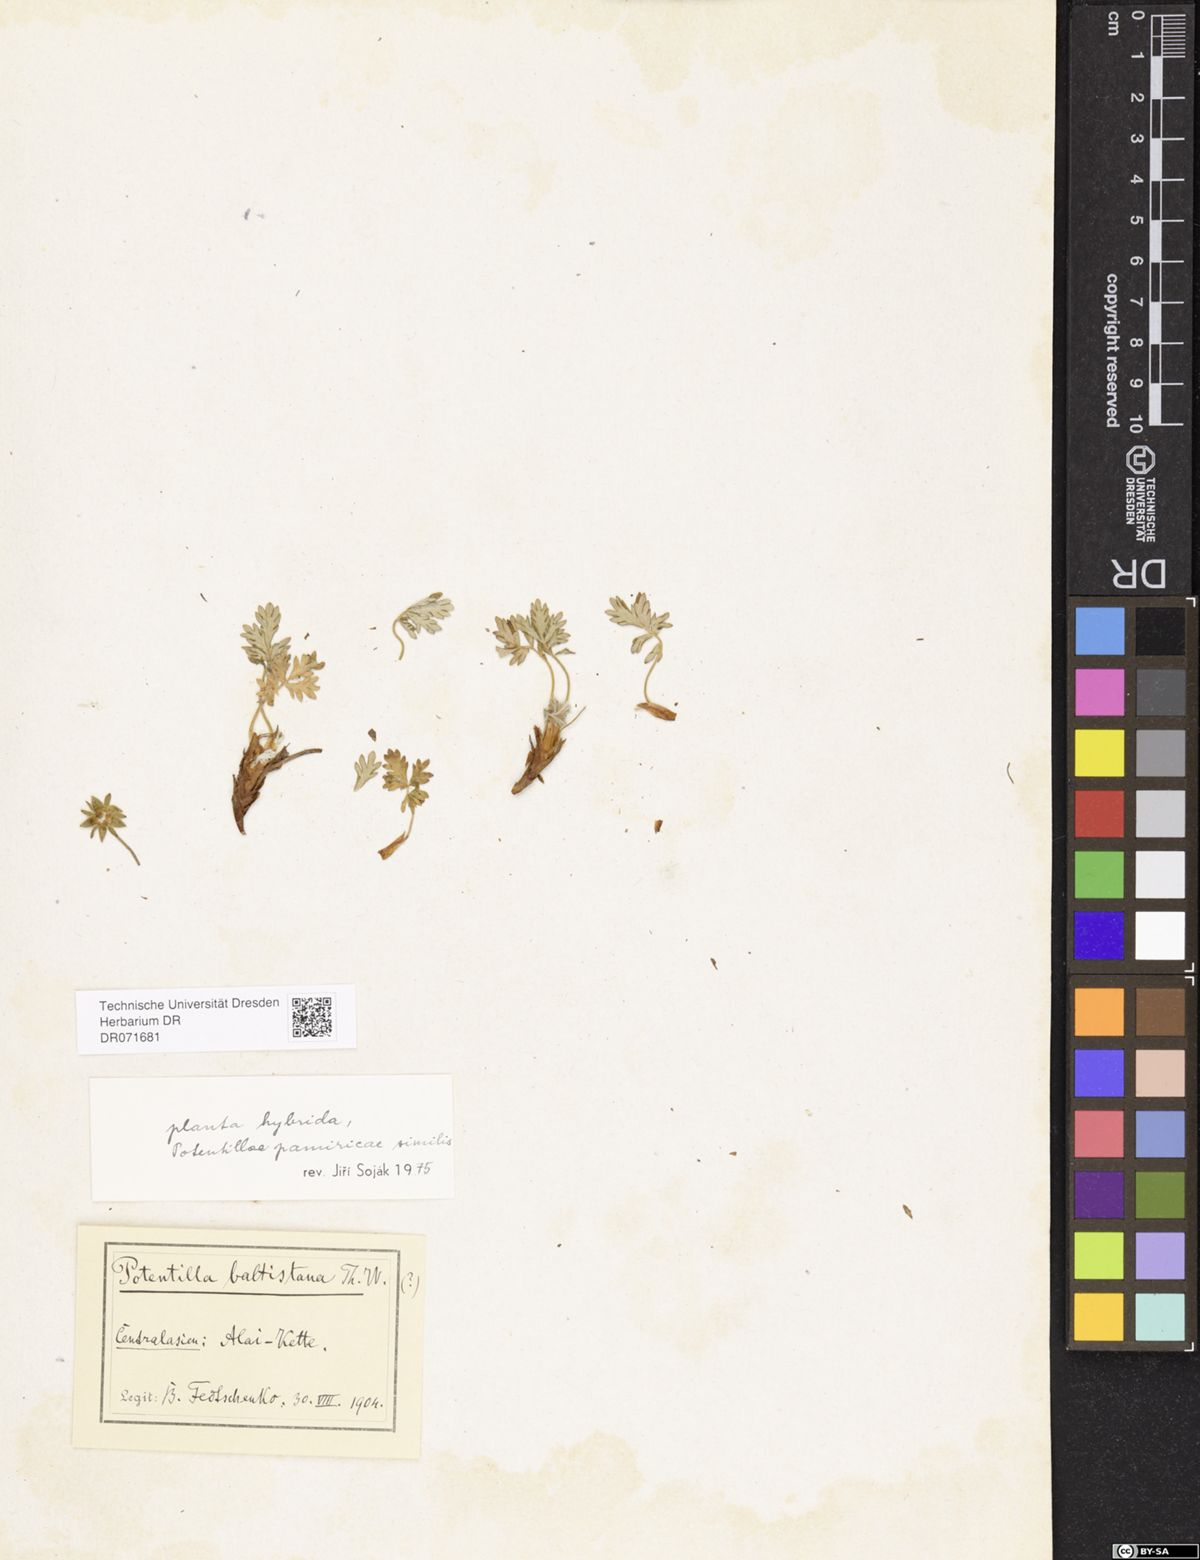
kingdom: Plantae
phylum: Tracheophyta
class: Magnoliopsida
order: Rosales
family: Rosaceae
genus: Potentilla
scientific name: Potentilla ornithopoda
